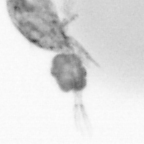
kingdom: Animalia
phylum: Arthropoda
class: Copepoda
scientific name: Copepoda
